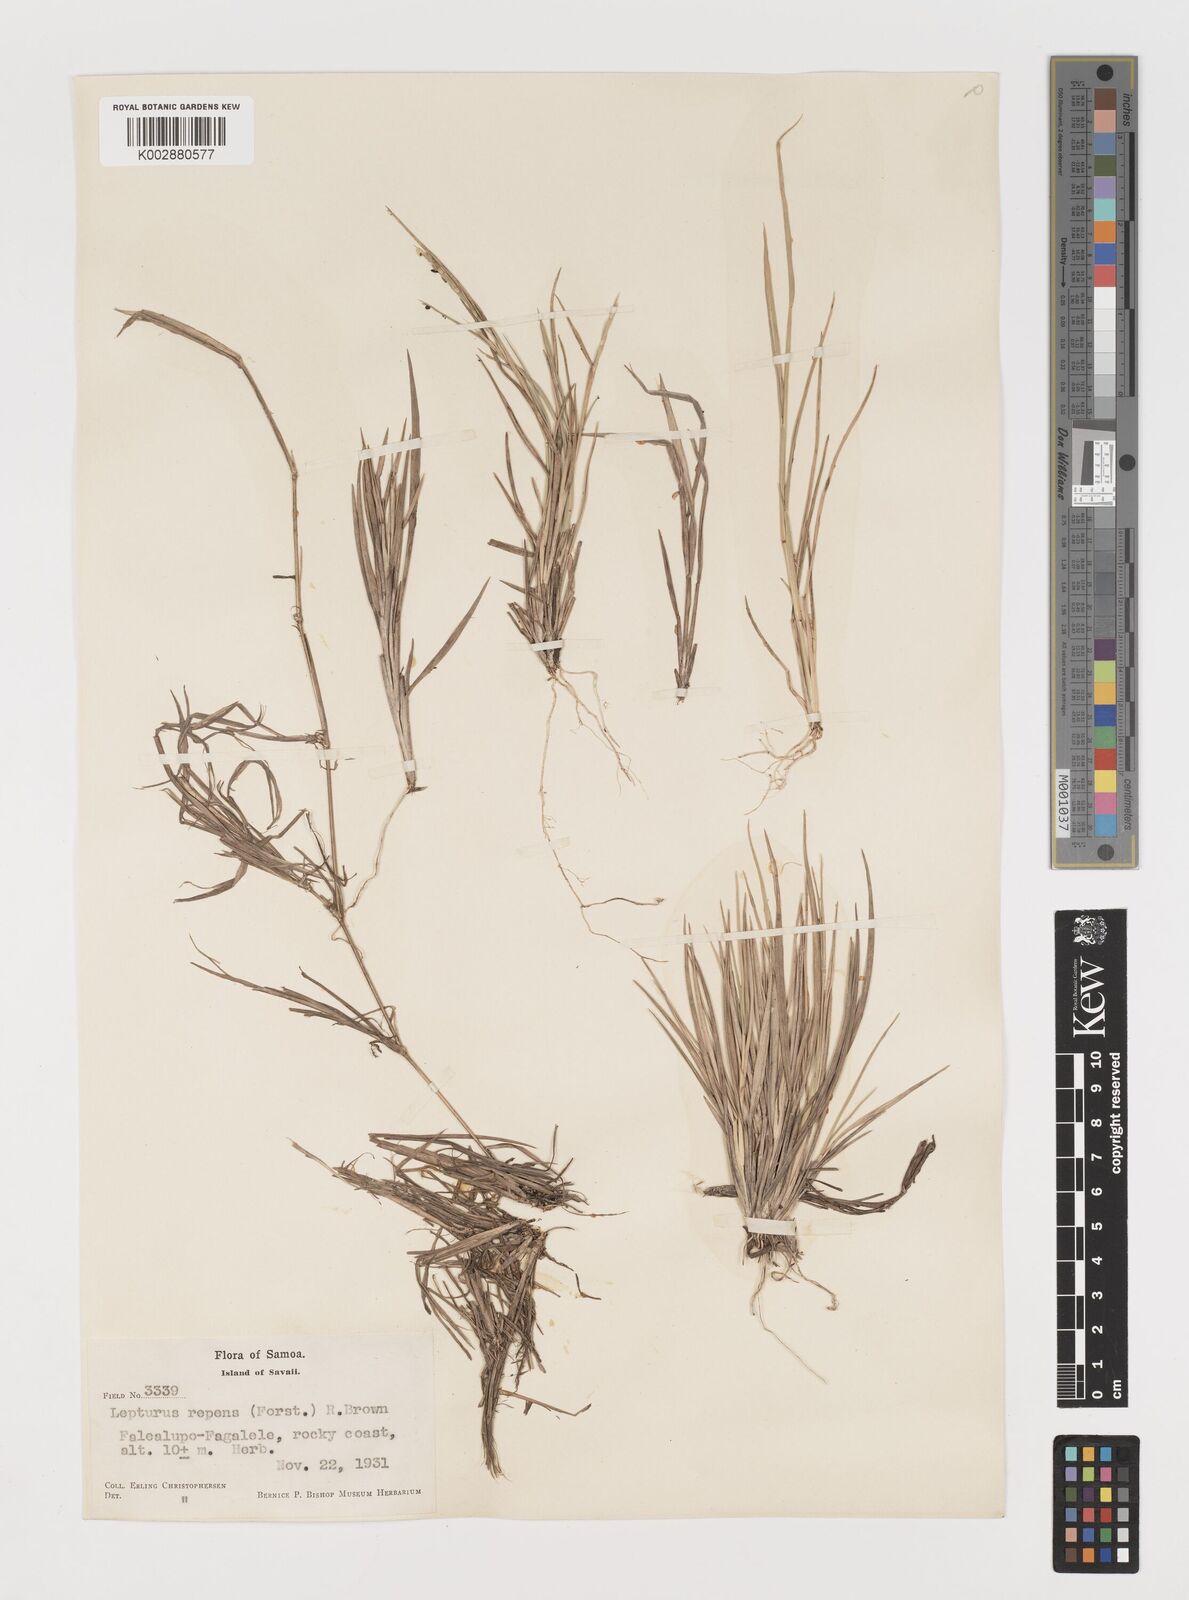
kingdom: Plantae
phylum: Tracheophyta
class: Liliopsida
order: Poales
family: Poaceae
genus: Lepturus
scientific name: Lepturus repens
